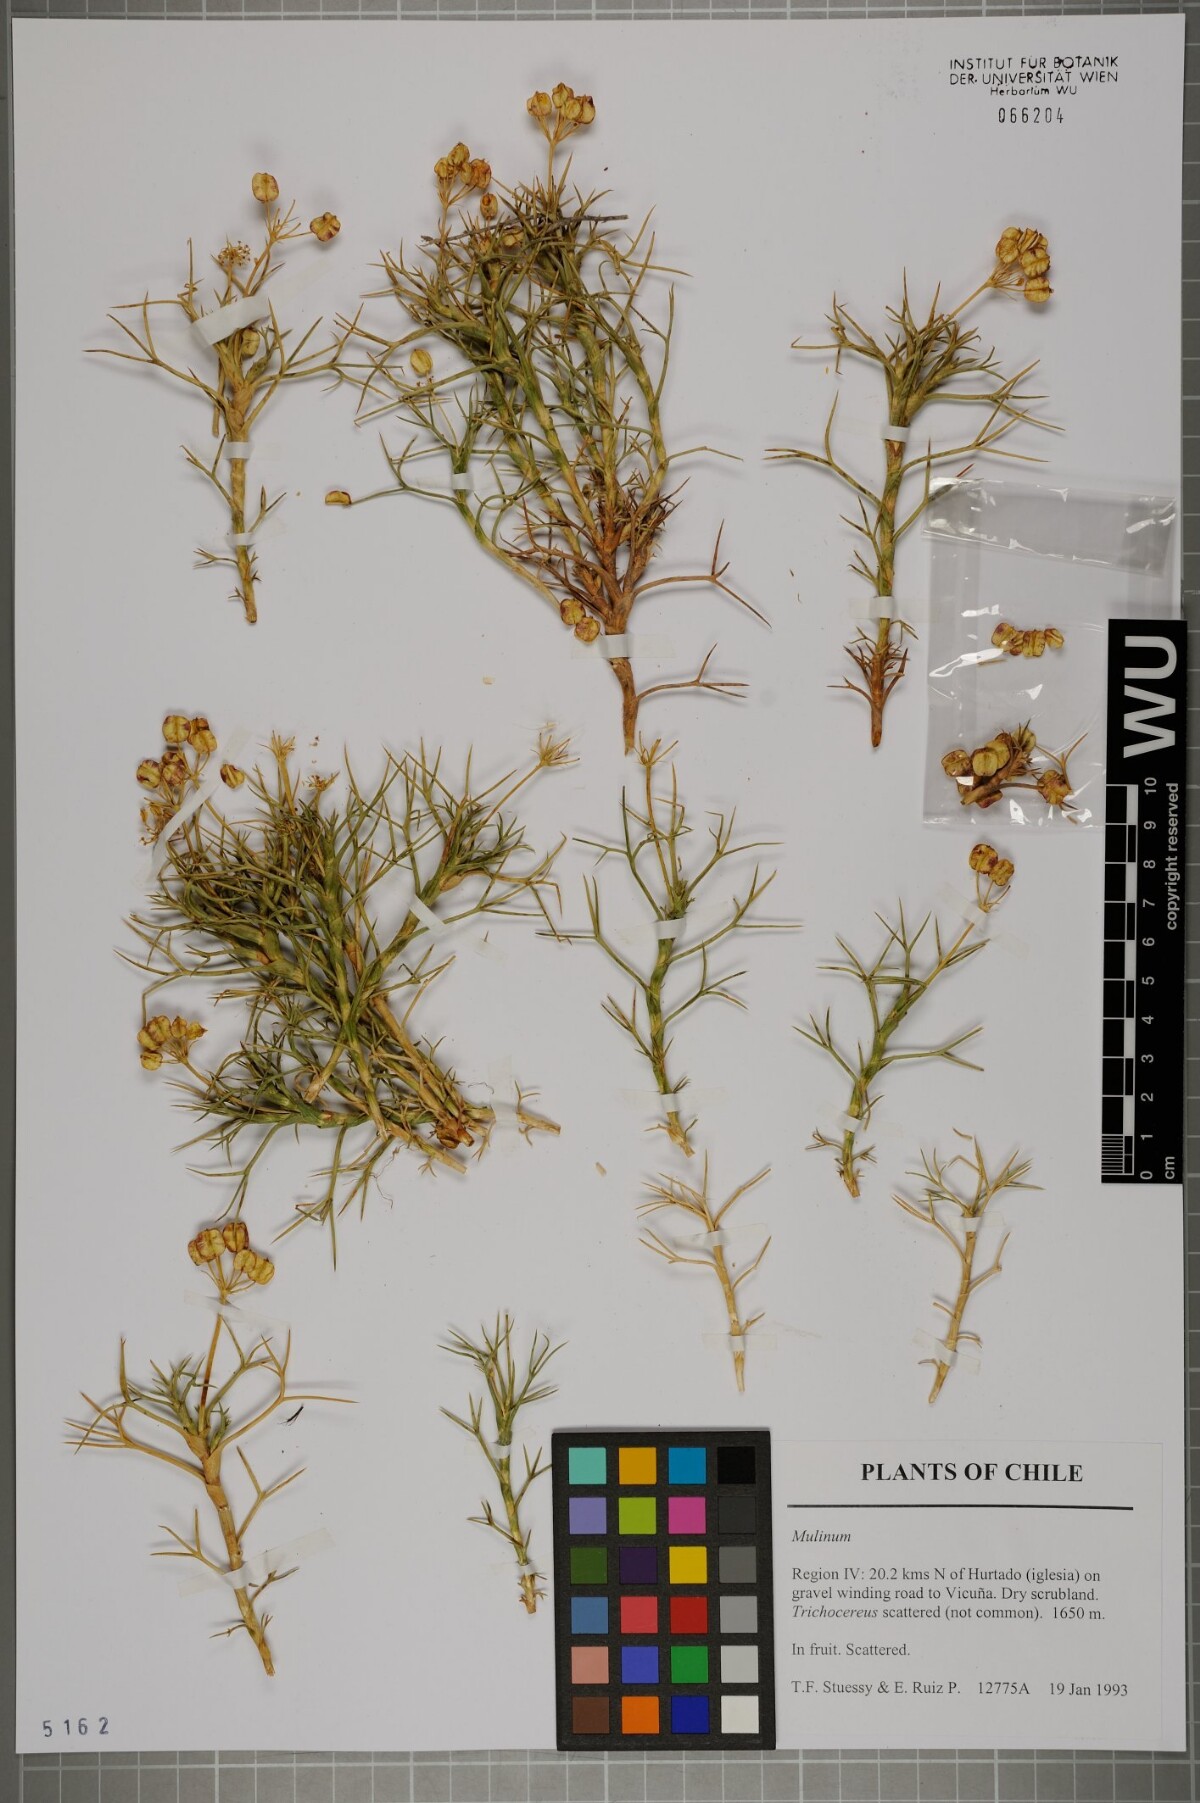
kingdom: Plantae
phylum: Tracheophyta
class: Magnoliopsida
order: Apiales
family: Apiaceae
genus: Azorella
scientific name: Azorella
